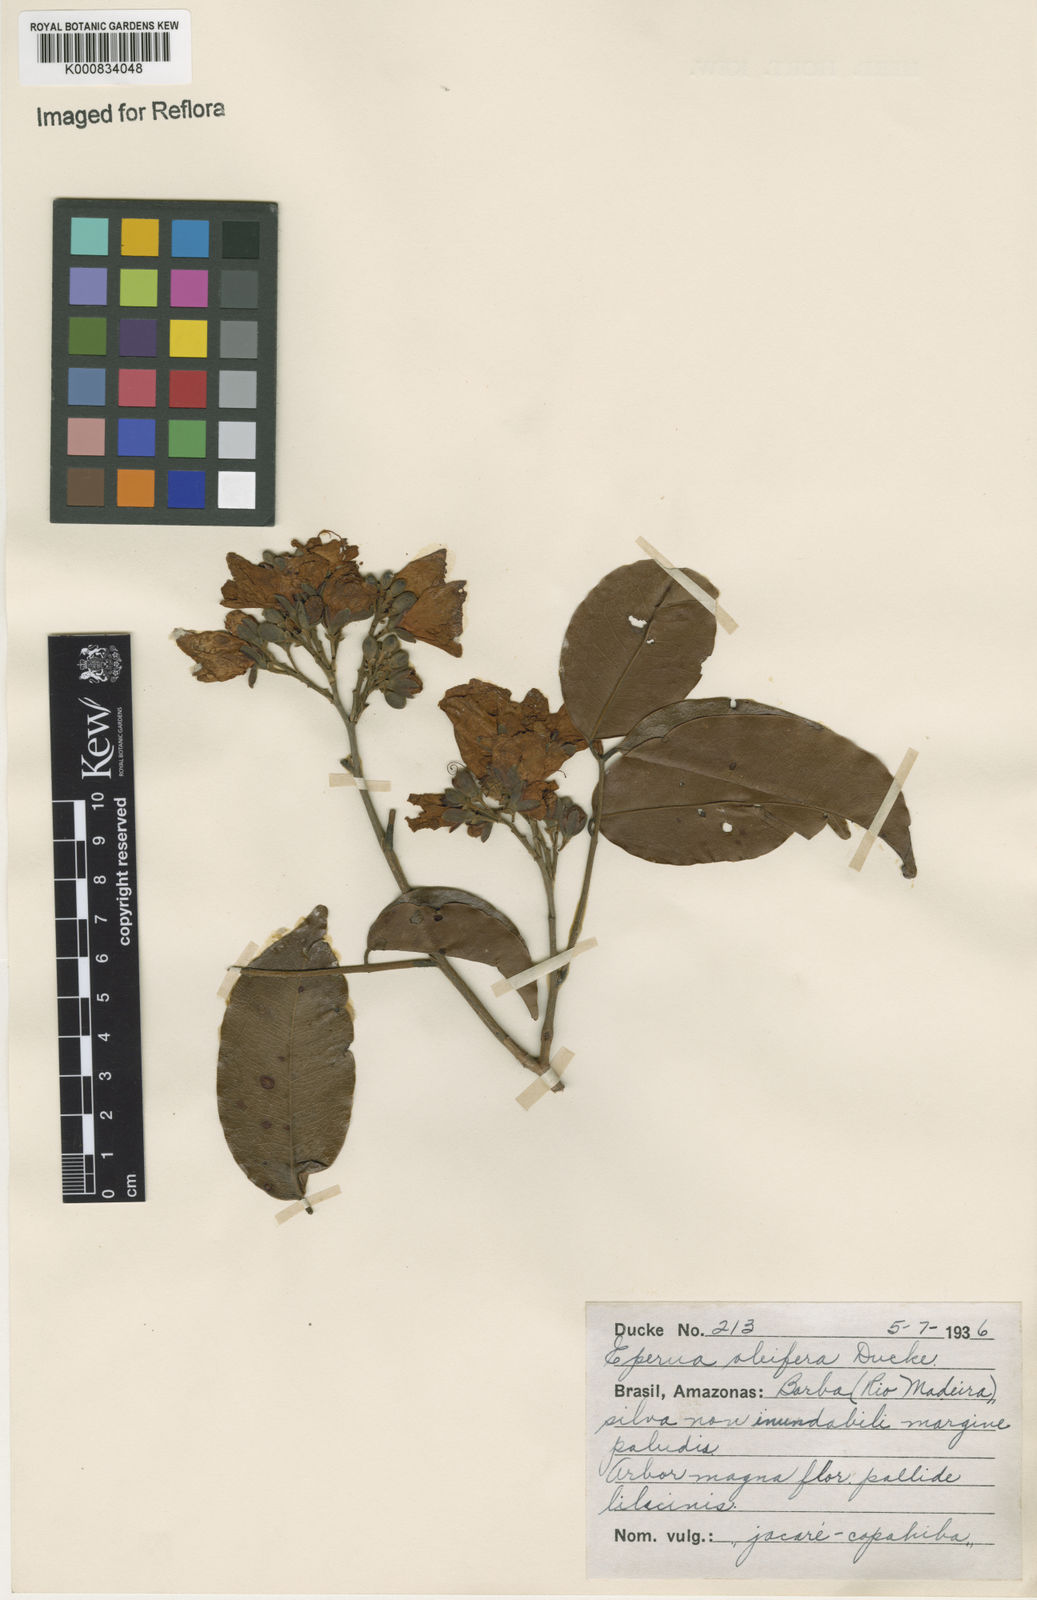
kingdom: Plantae
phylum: Tracheophyta
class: Magnoliopsida
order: Fabales
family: Fabaceae
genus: Eperua
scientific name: Eperua oleifera
